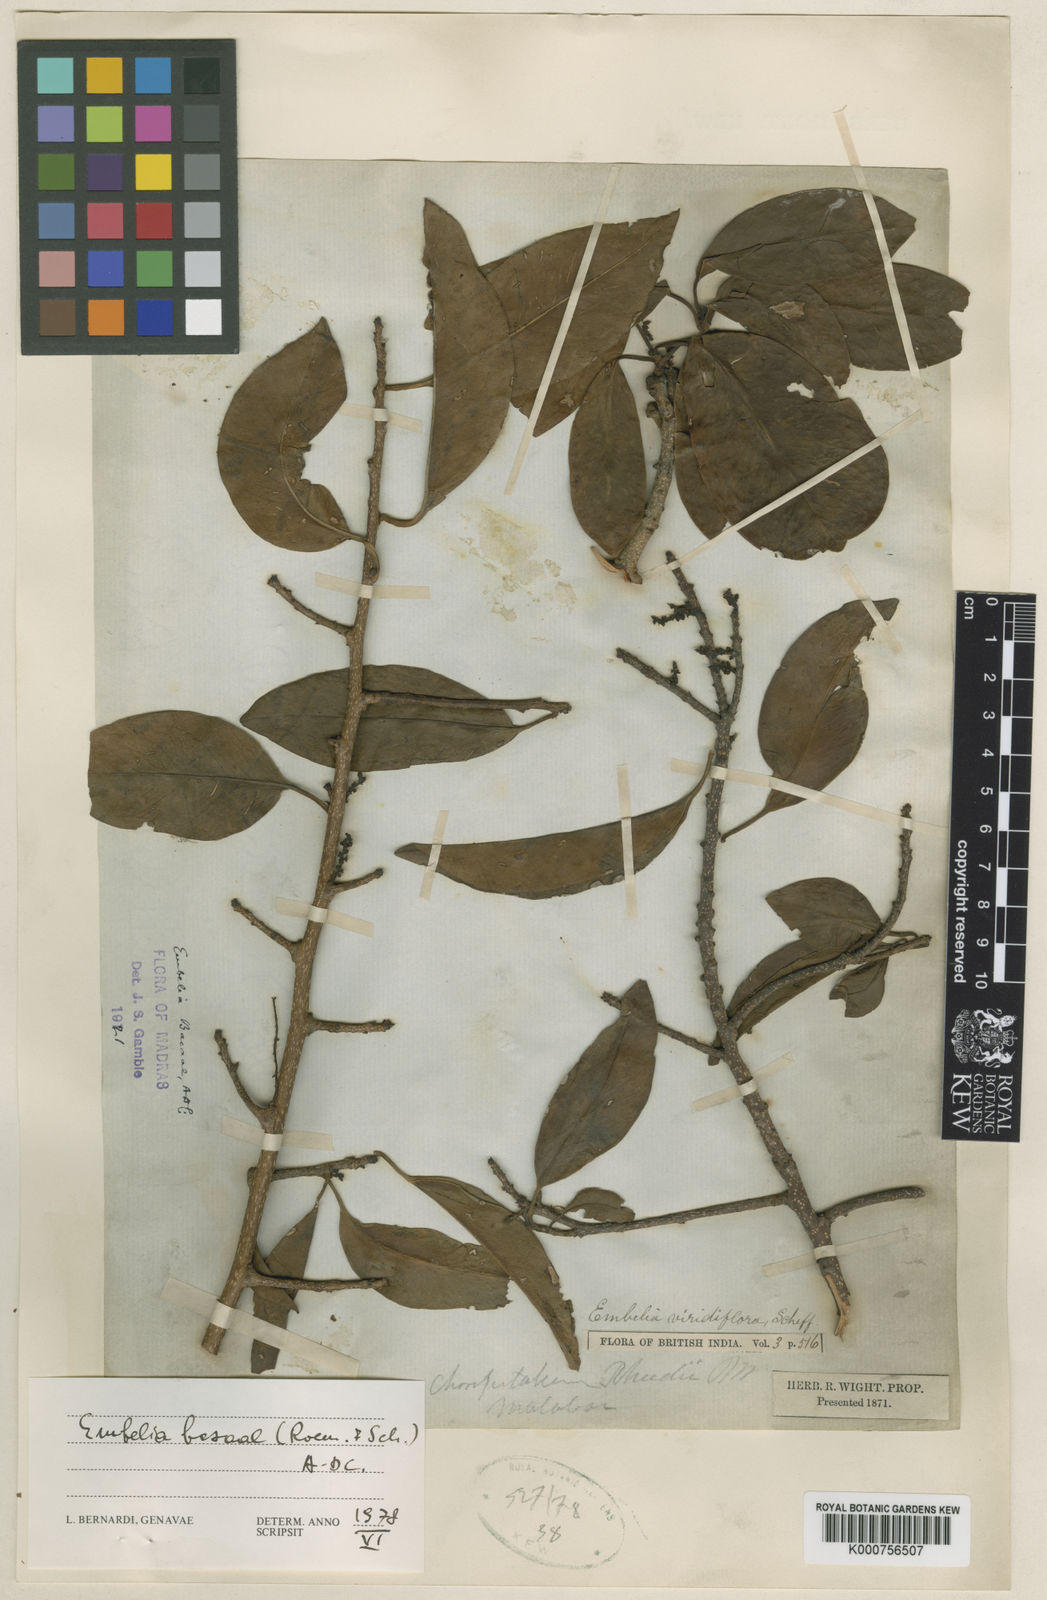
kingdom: Plantae
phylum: Tracheophyta
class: Magnoliopsida
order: Ericales
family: Primulaceae
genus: Embelia
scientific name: Embelia tsjeriam-cottam
